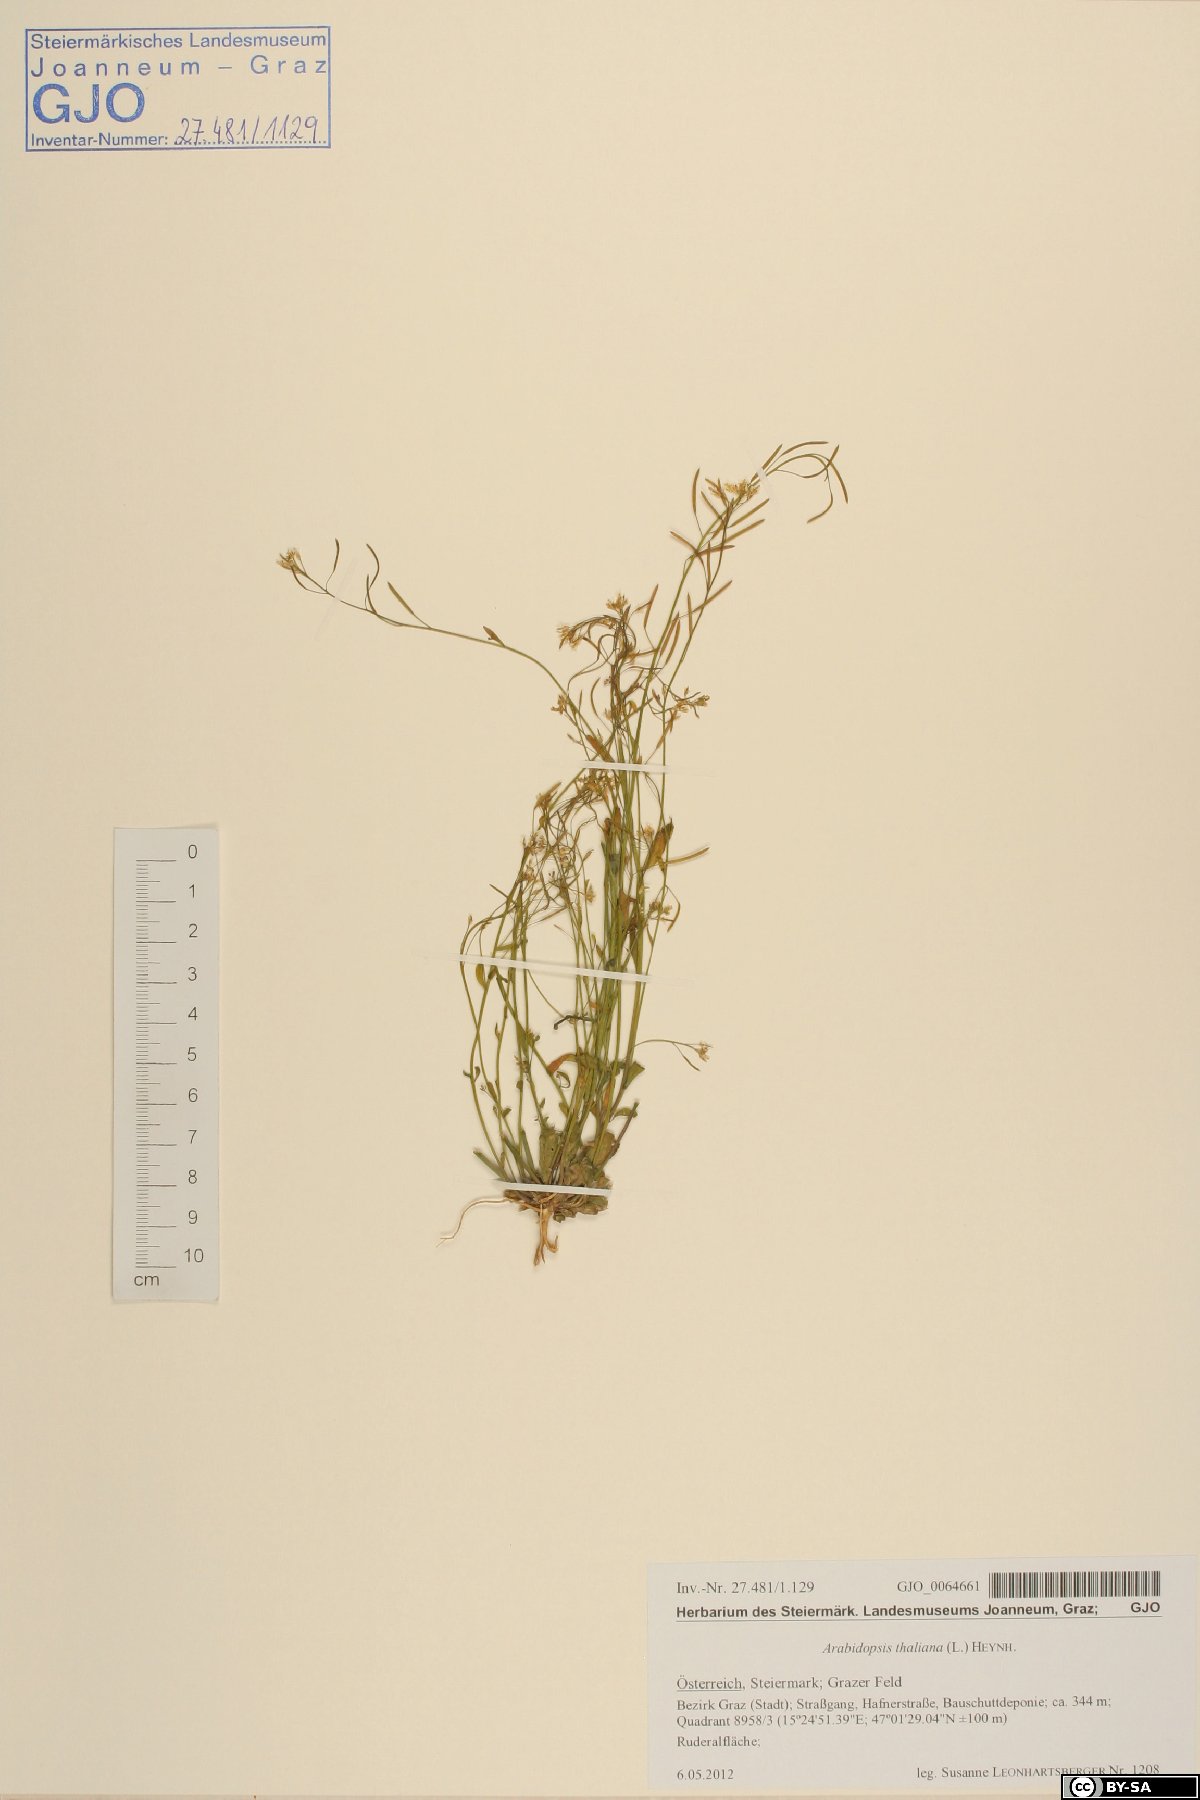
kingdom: Plantae
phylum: Tracheophyta
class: Magnoliopsida
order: Brassicales
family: Brassicaceae
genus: Arabidopsis
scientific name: Arabidopsis thaliana
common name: Thale cress
